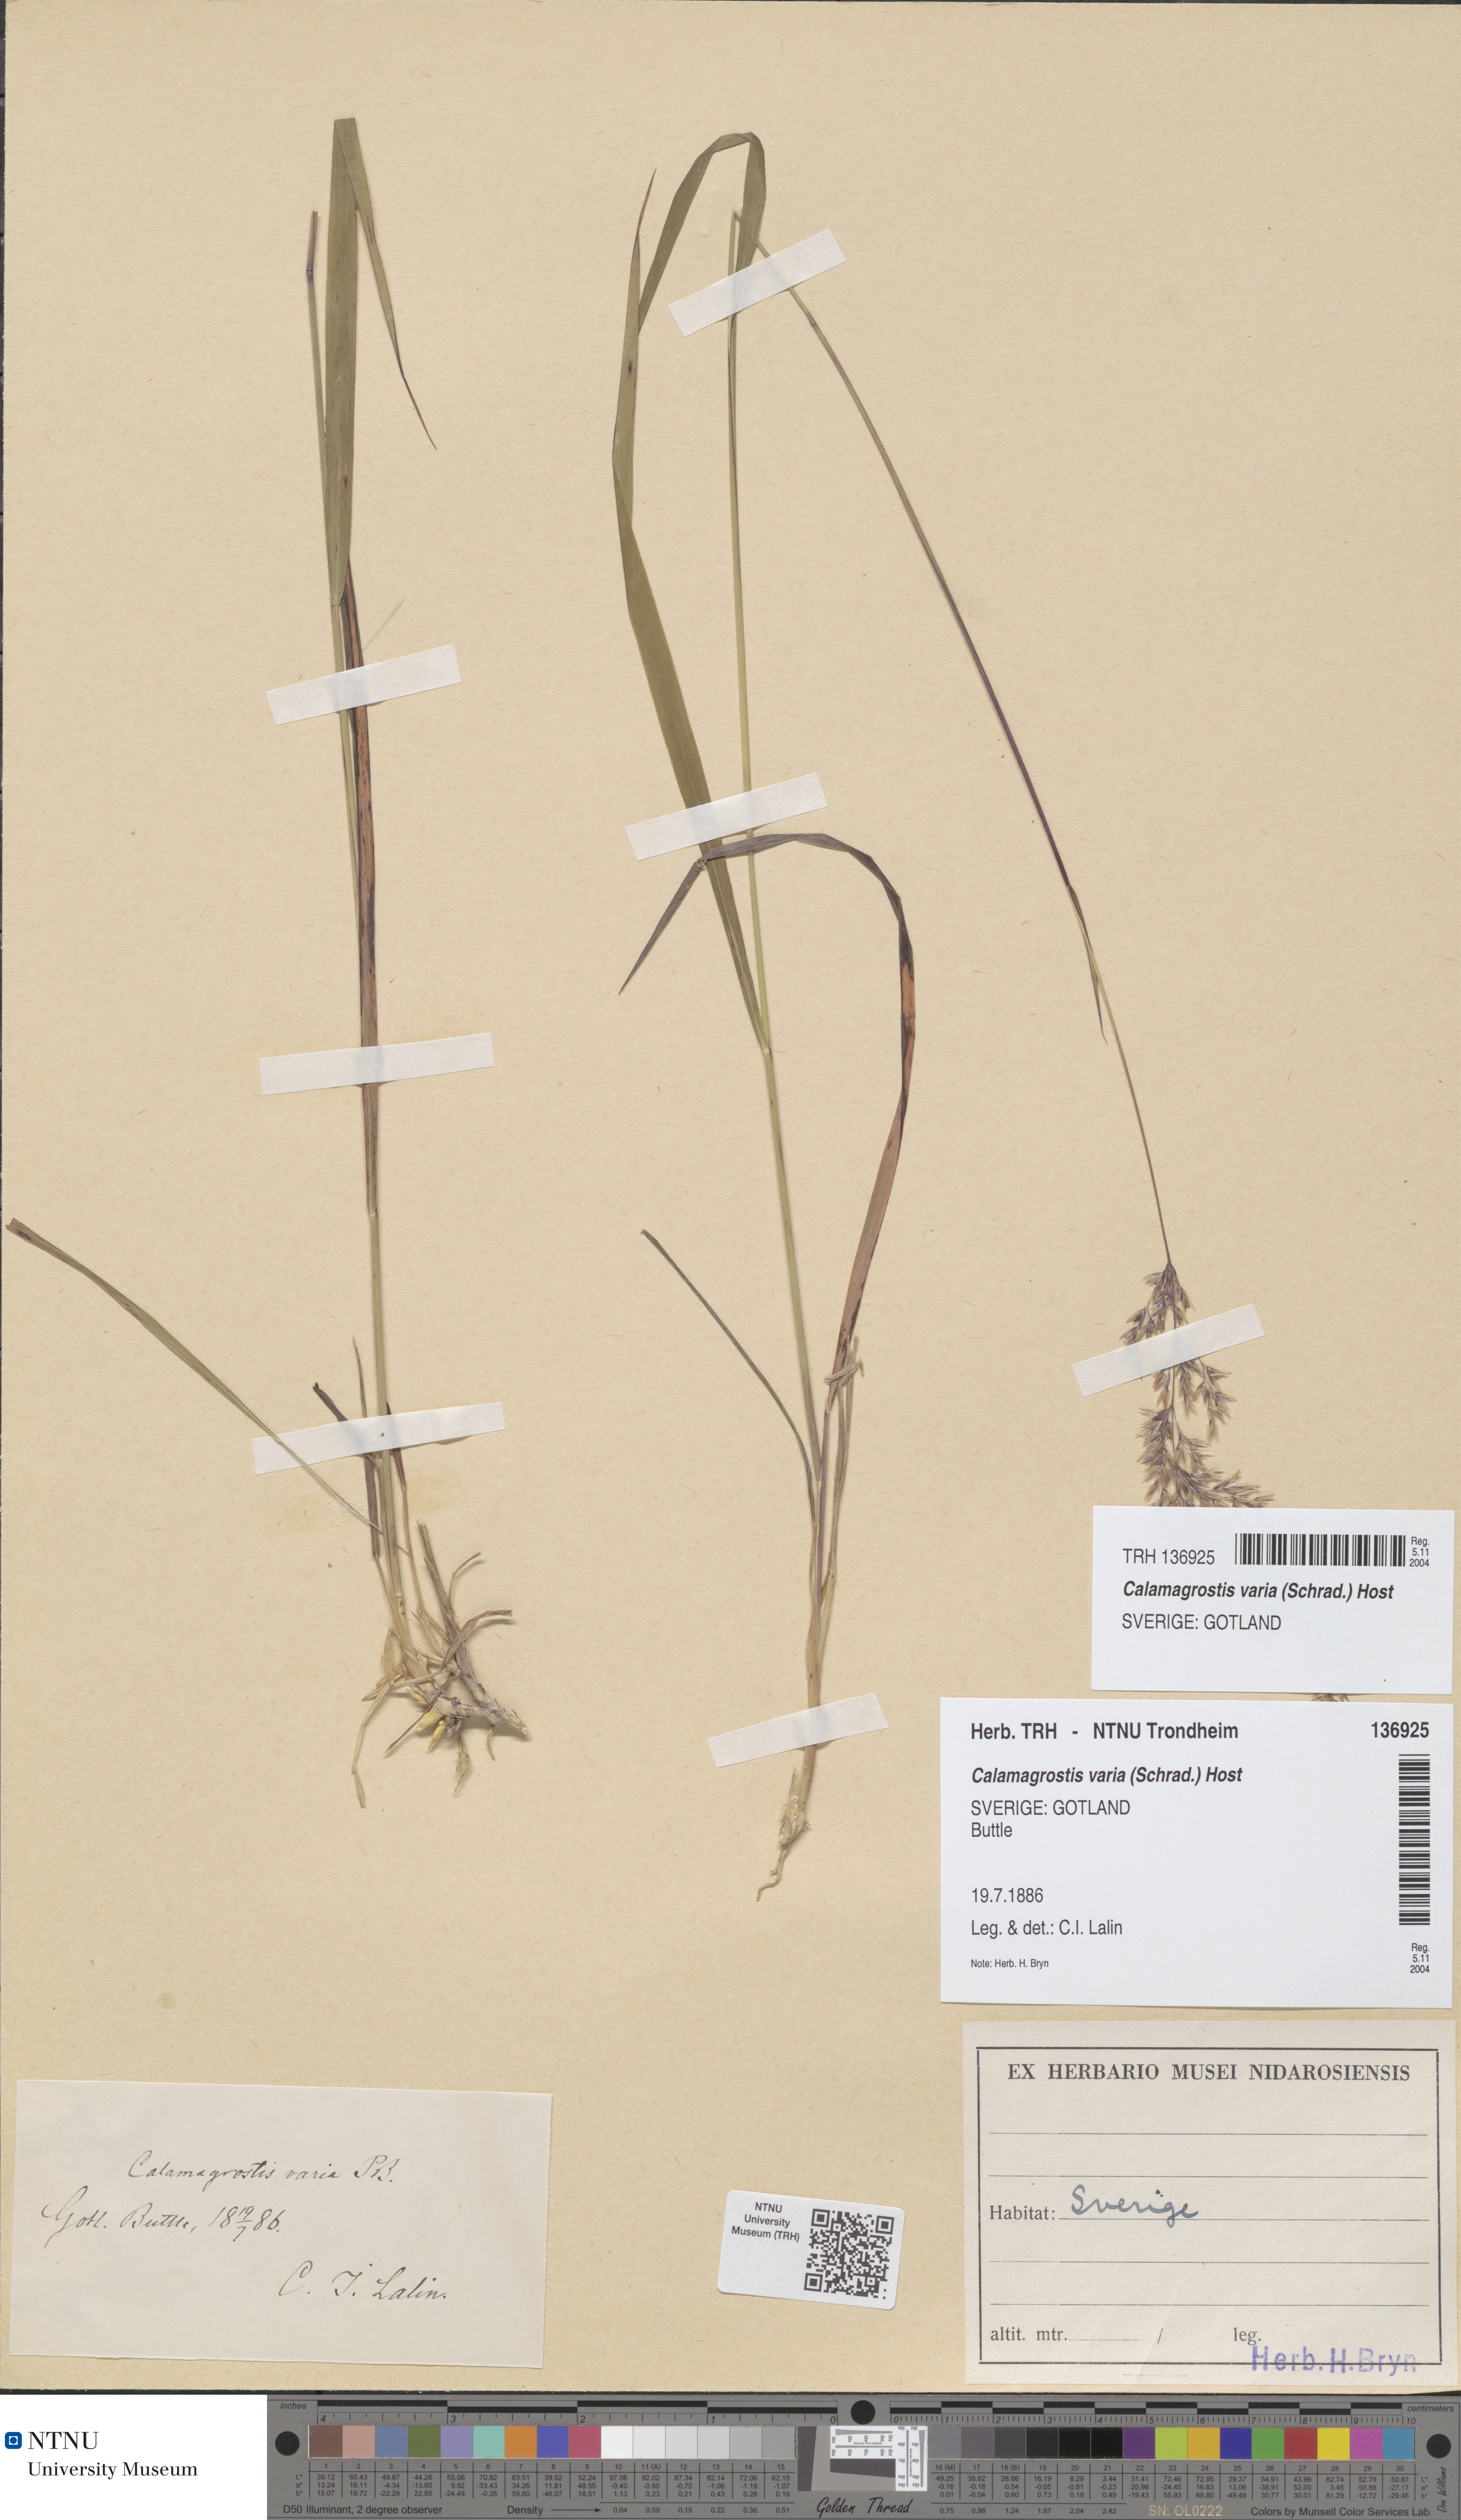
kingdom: Plantae
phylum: Tracheophyta
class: Liliopsida
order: Poales
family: Poaceae
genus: Calamagrostis
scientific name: Calamagrostis varia
